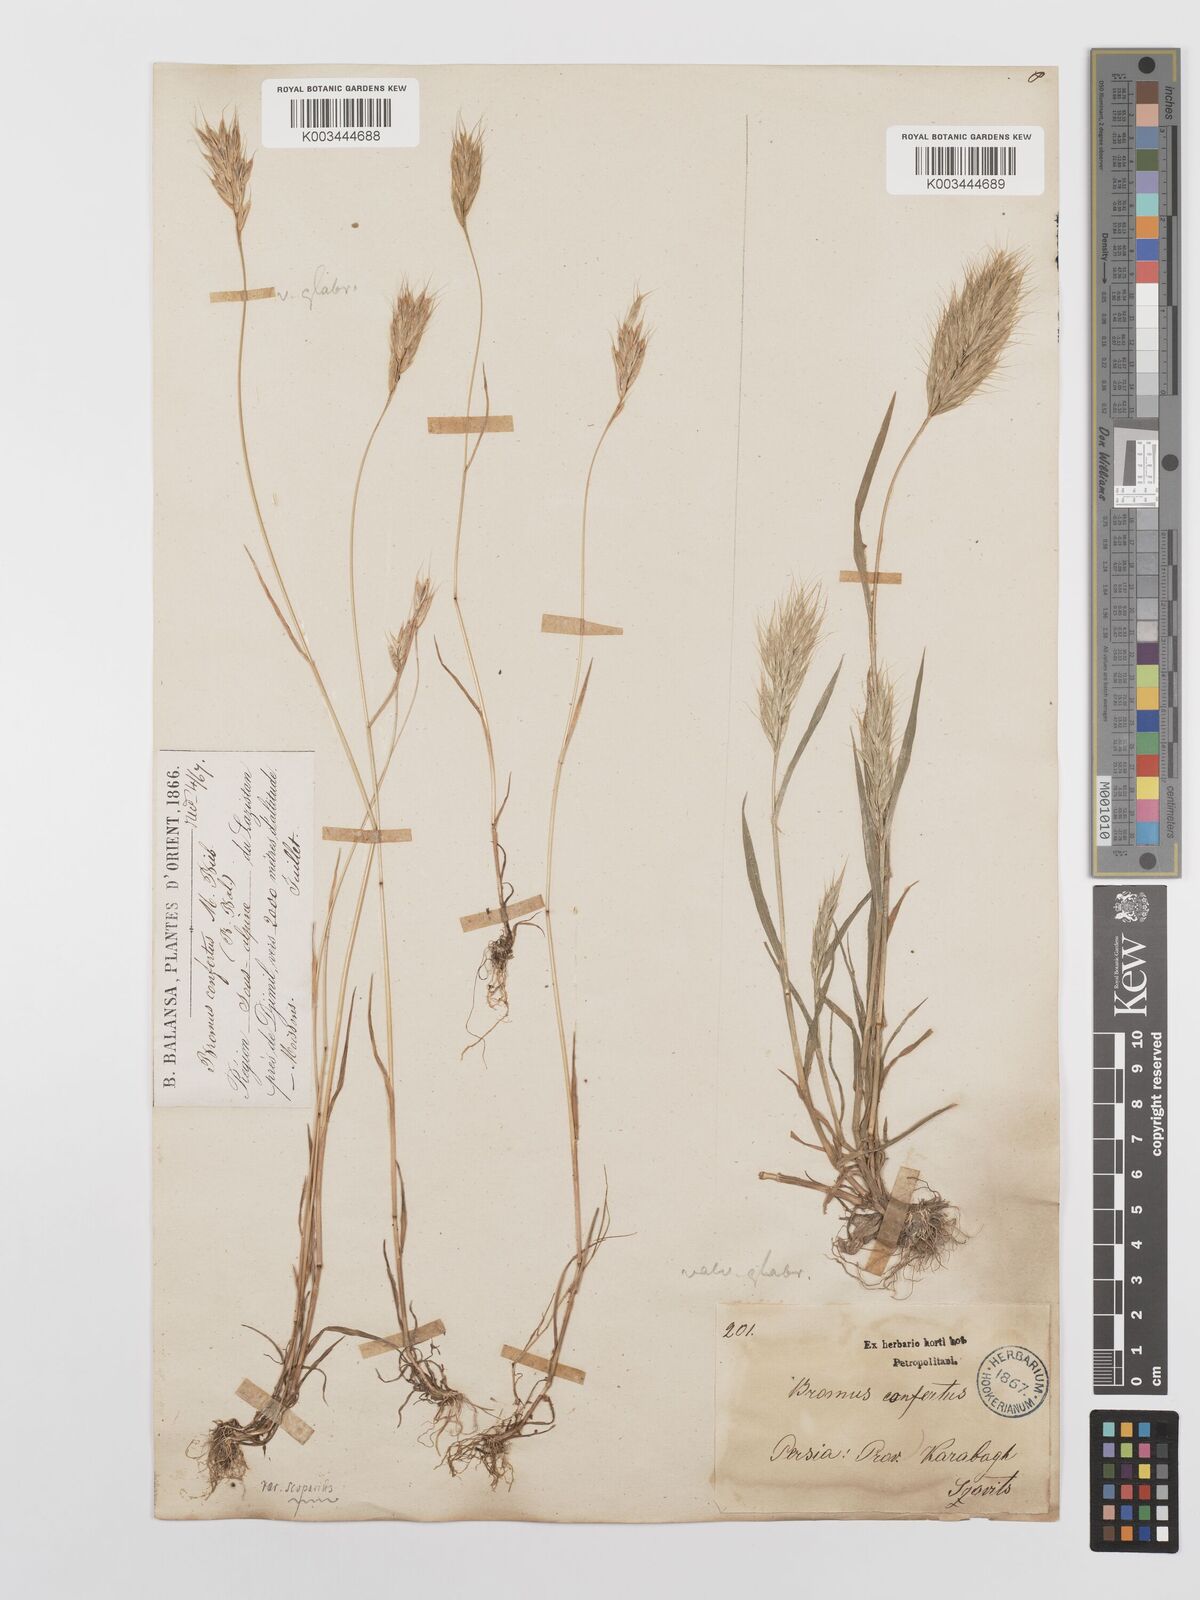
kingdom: Plantae
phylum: Tracheophyta
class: Liliopsida
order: Poales
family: Poaceae
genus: Bromus
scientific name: Bromus scoparius
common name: Broom brome
